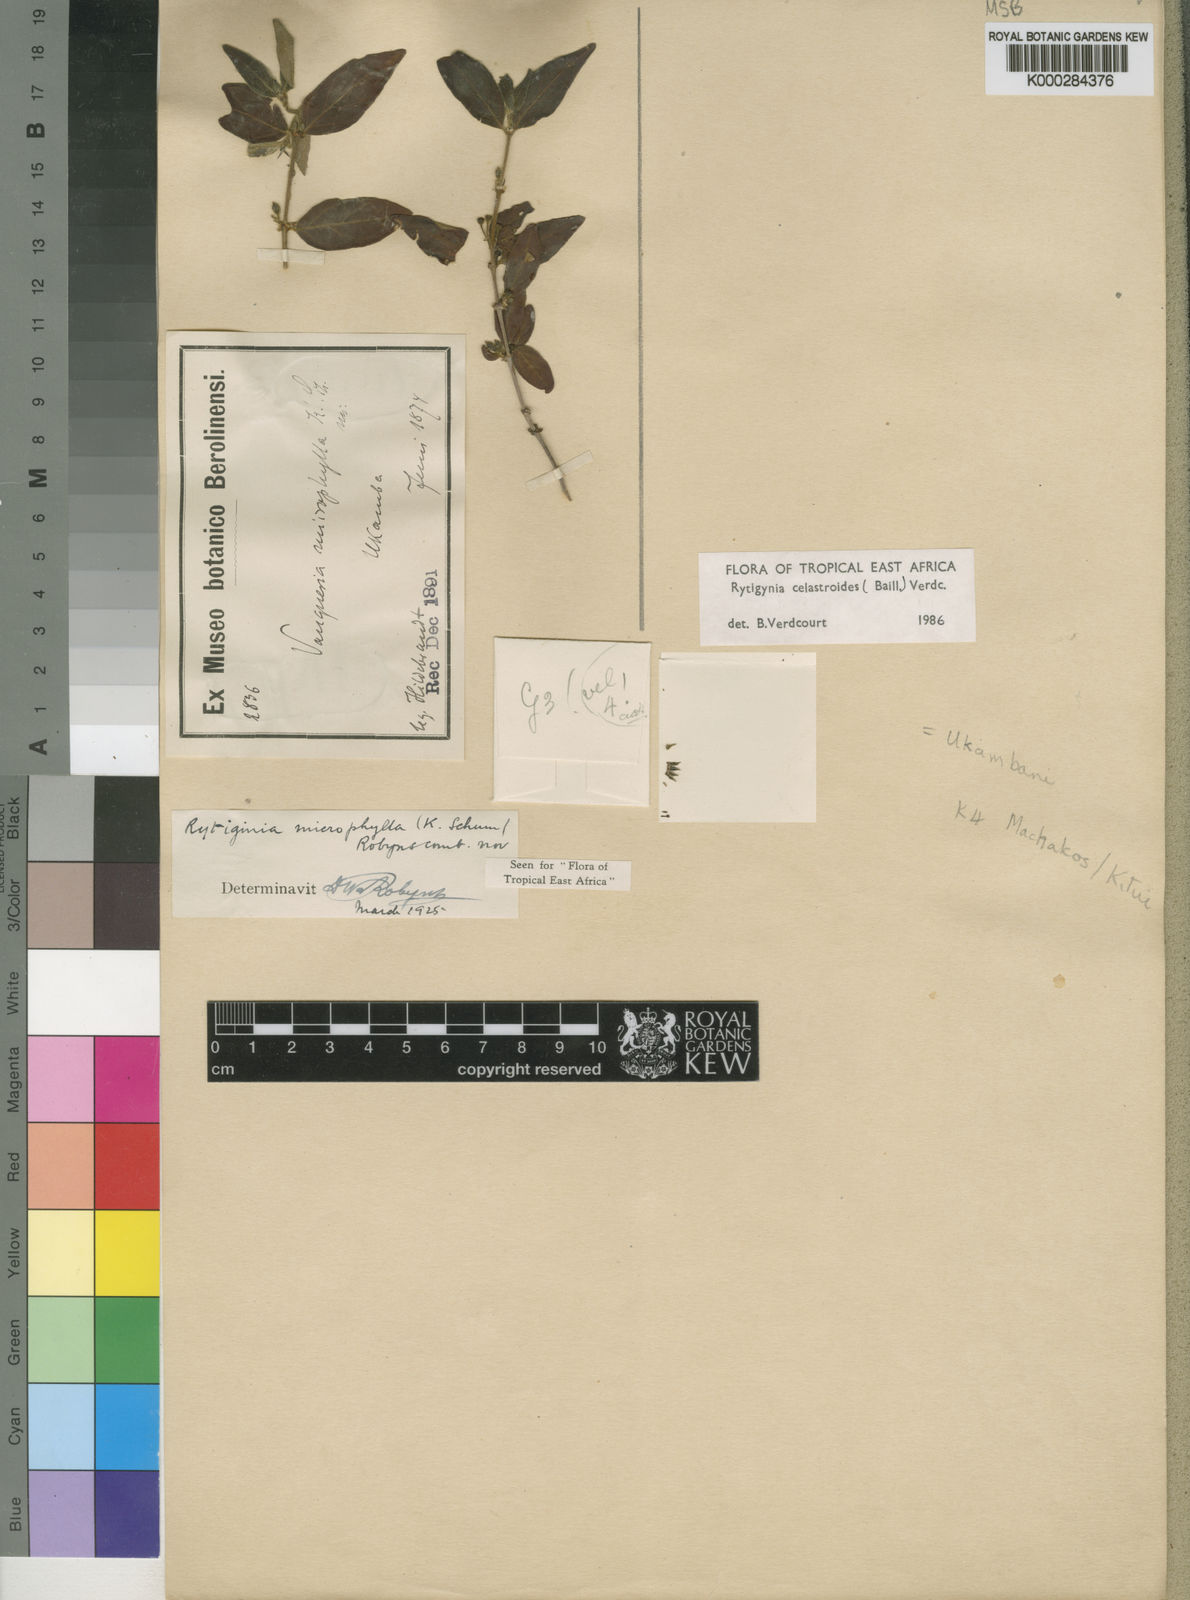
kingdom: Plantae
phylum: Tracheophyta
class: Magnoliopsida
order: Gentianales
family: Rubiaceae
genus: Rytigynia
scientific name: Rytigynia celastroides
